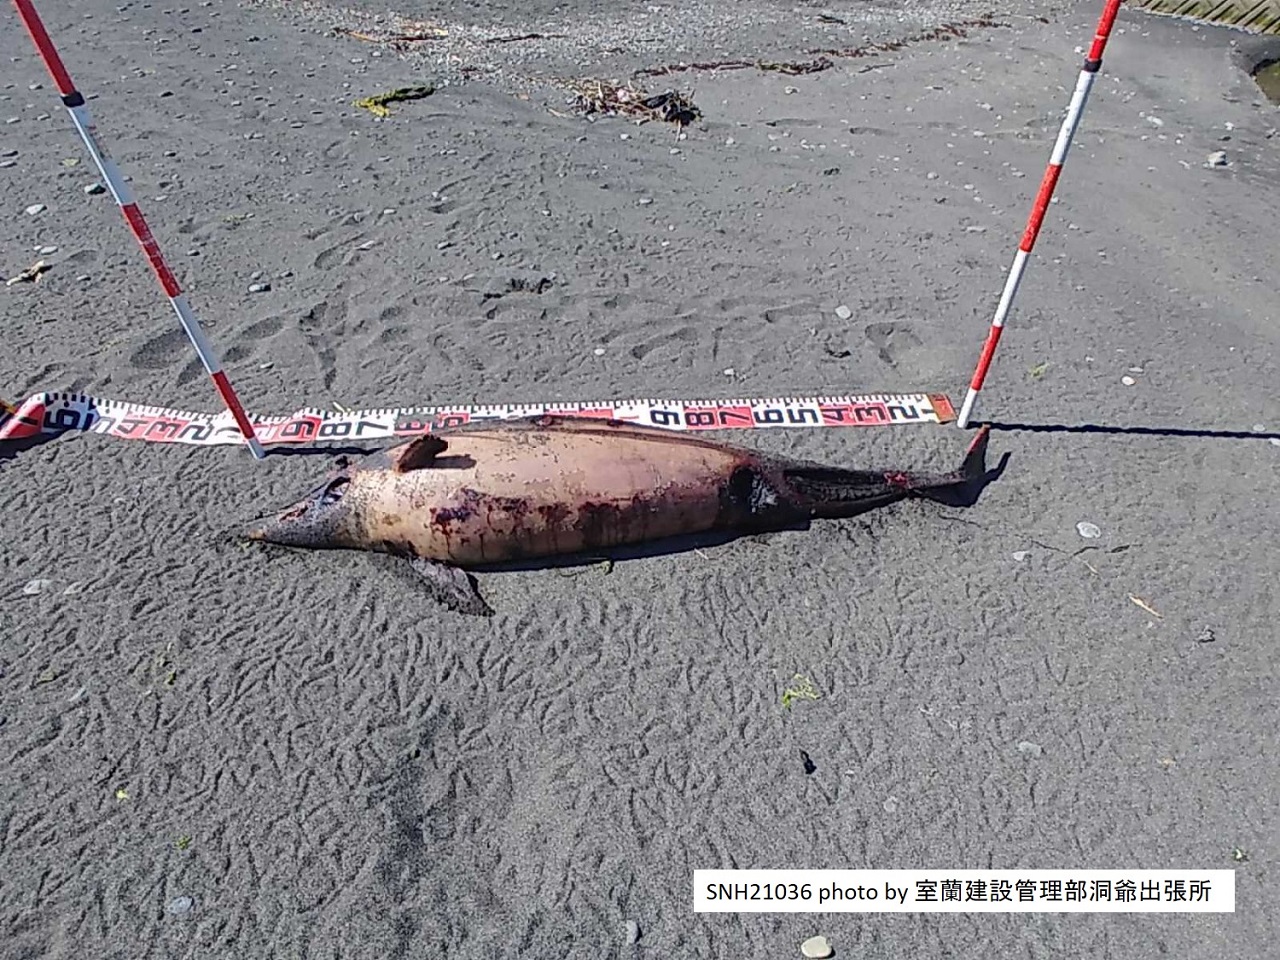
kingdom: Animalia
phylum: Chordata
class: Mammalia
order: Cetacea
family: Delphinidae
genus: Stenella
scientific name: Stenella coeruleoalba
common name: Striped dolphin
